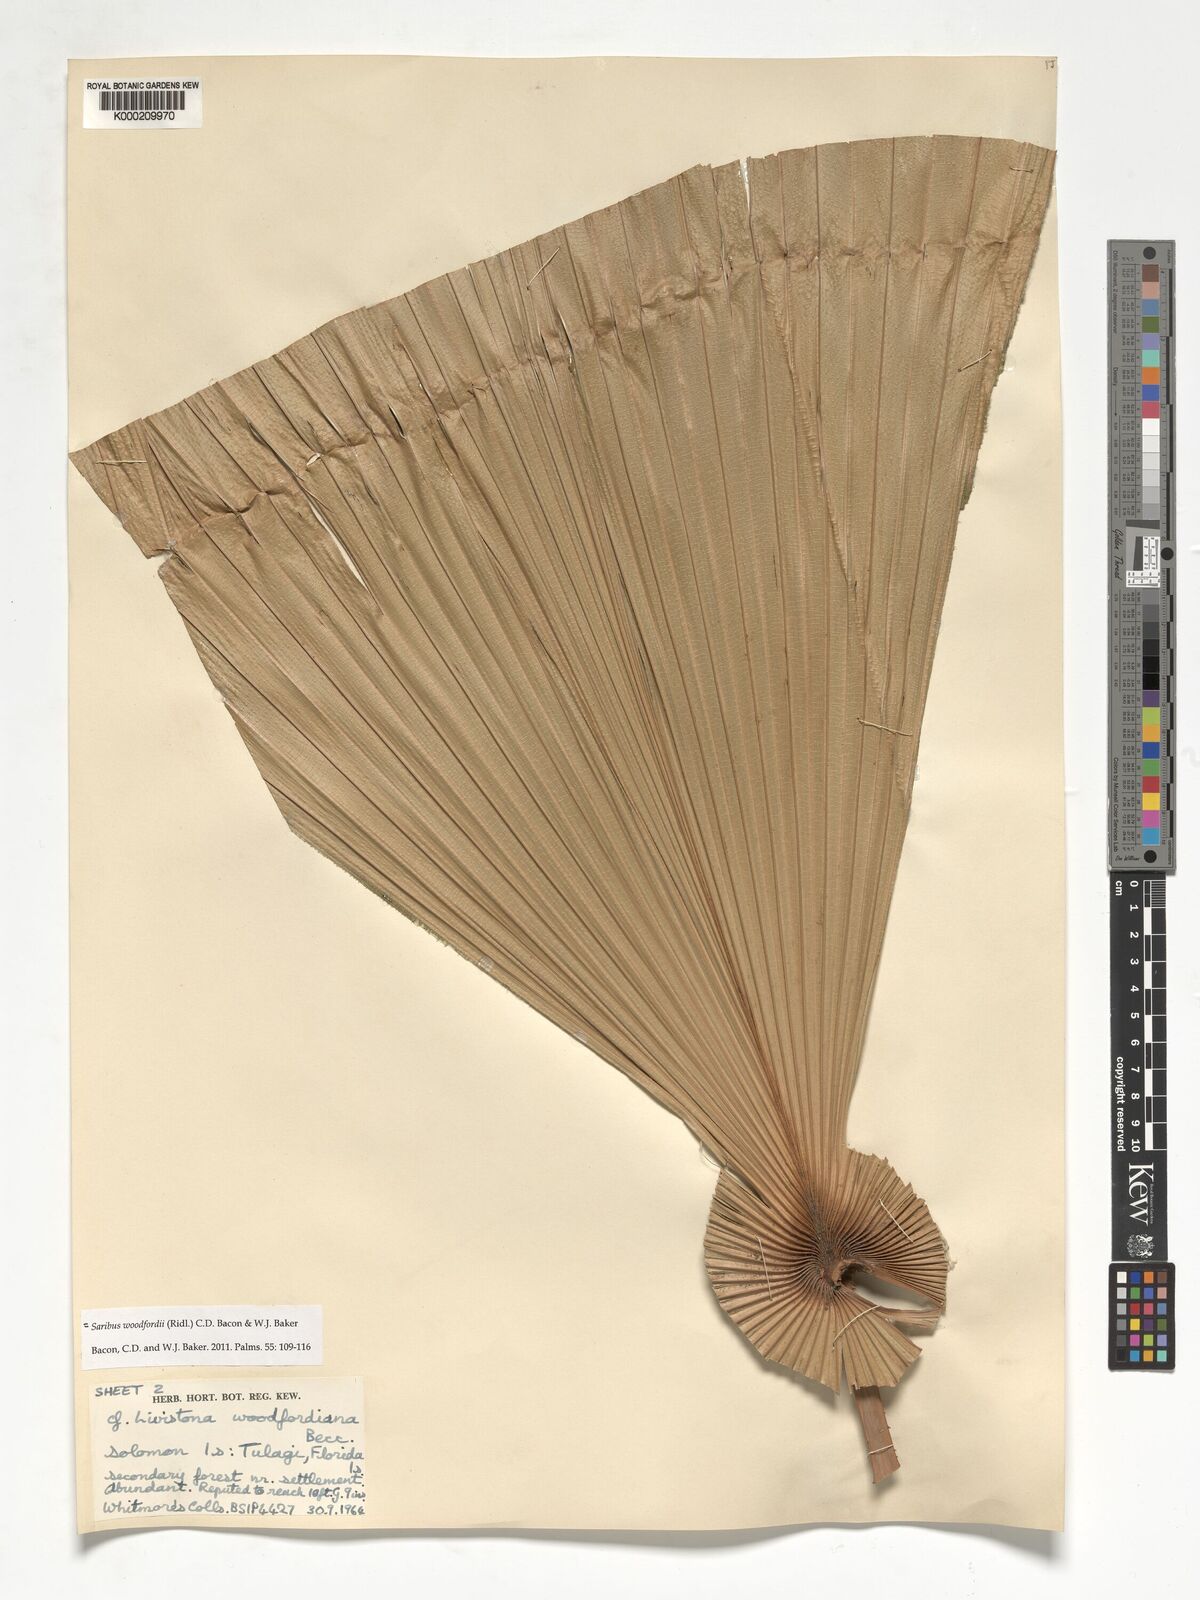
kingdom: Plantae
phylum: Tracheophyta
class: Liliopsida
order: Arecales
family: Arecaceae
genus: Saribus
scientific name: Saribus woodfordii
